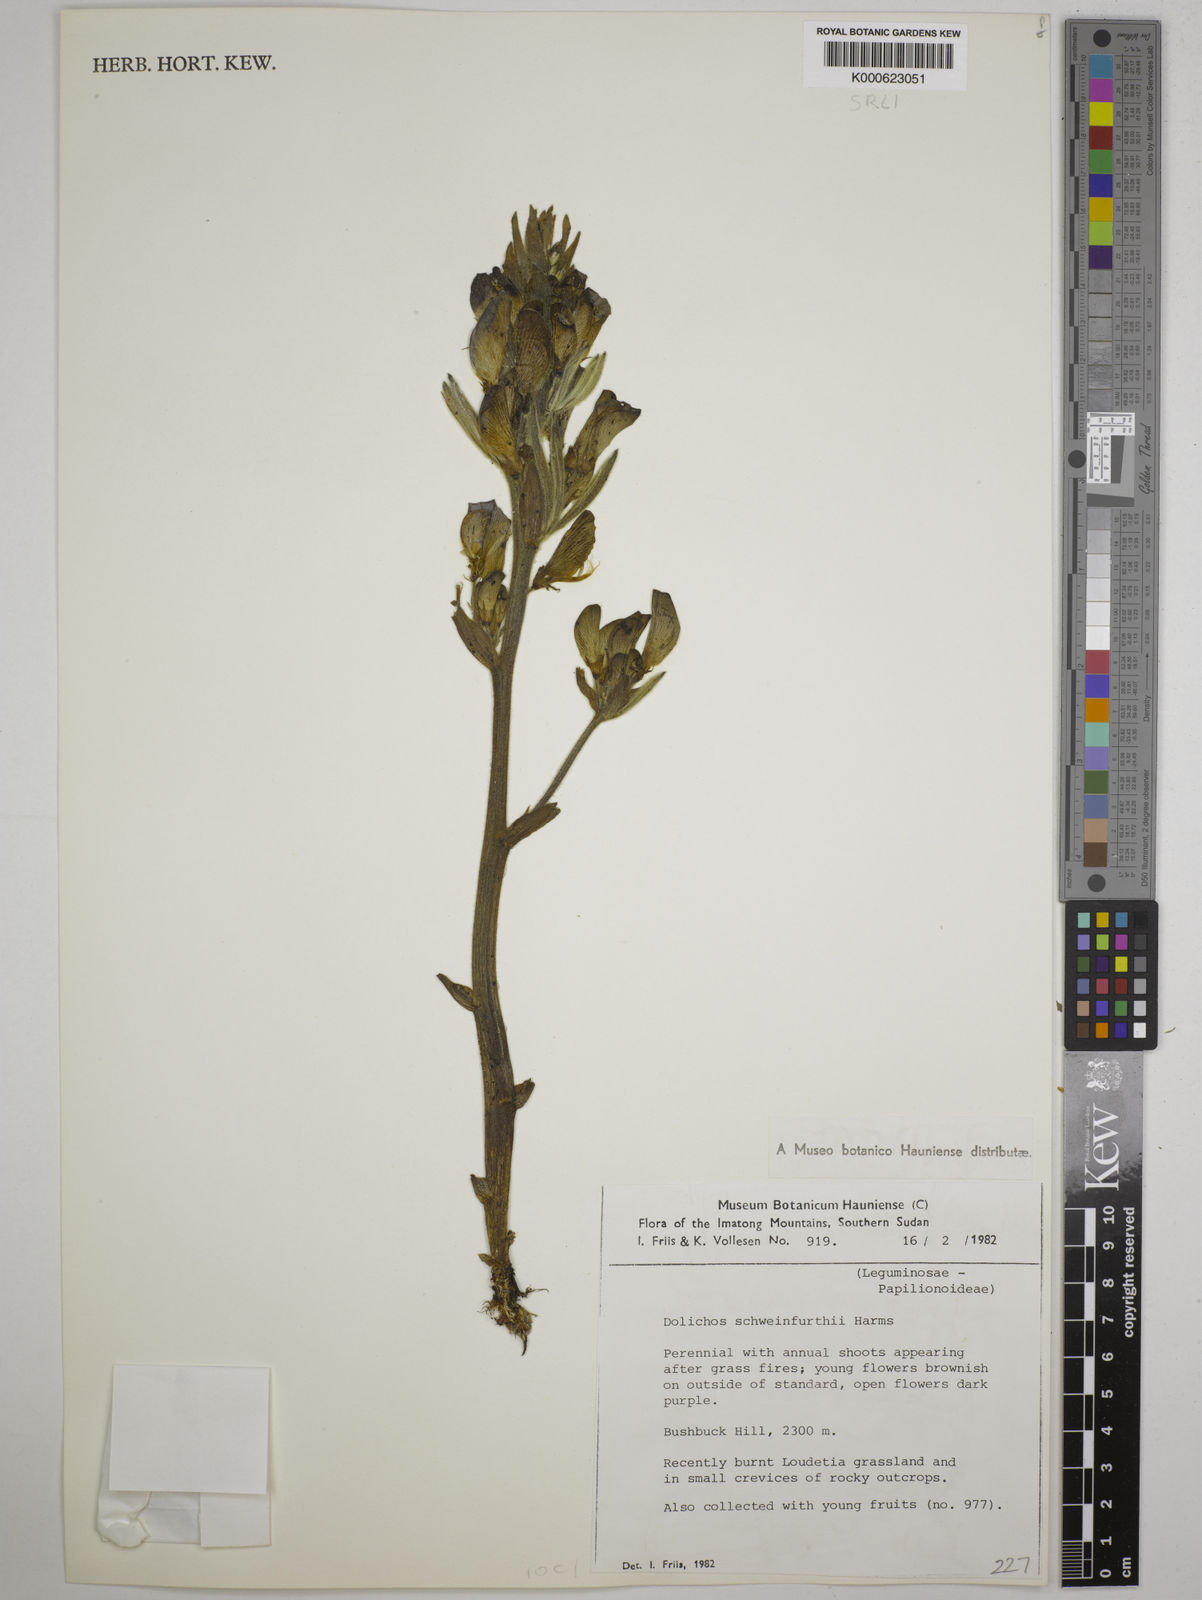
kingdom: Plantae
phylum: Tracheophyta
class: Magnoliopsida
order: Fabales
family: Fabaceae
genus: Dolichos
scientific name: Dolichos
